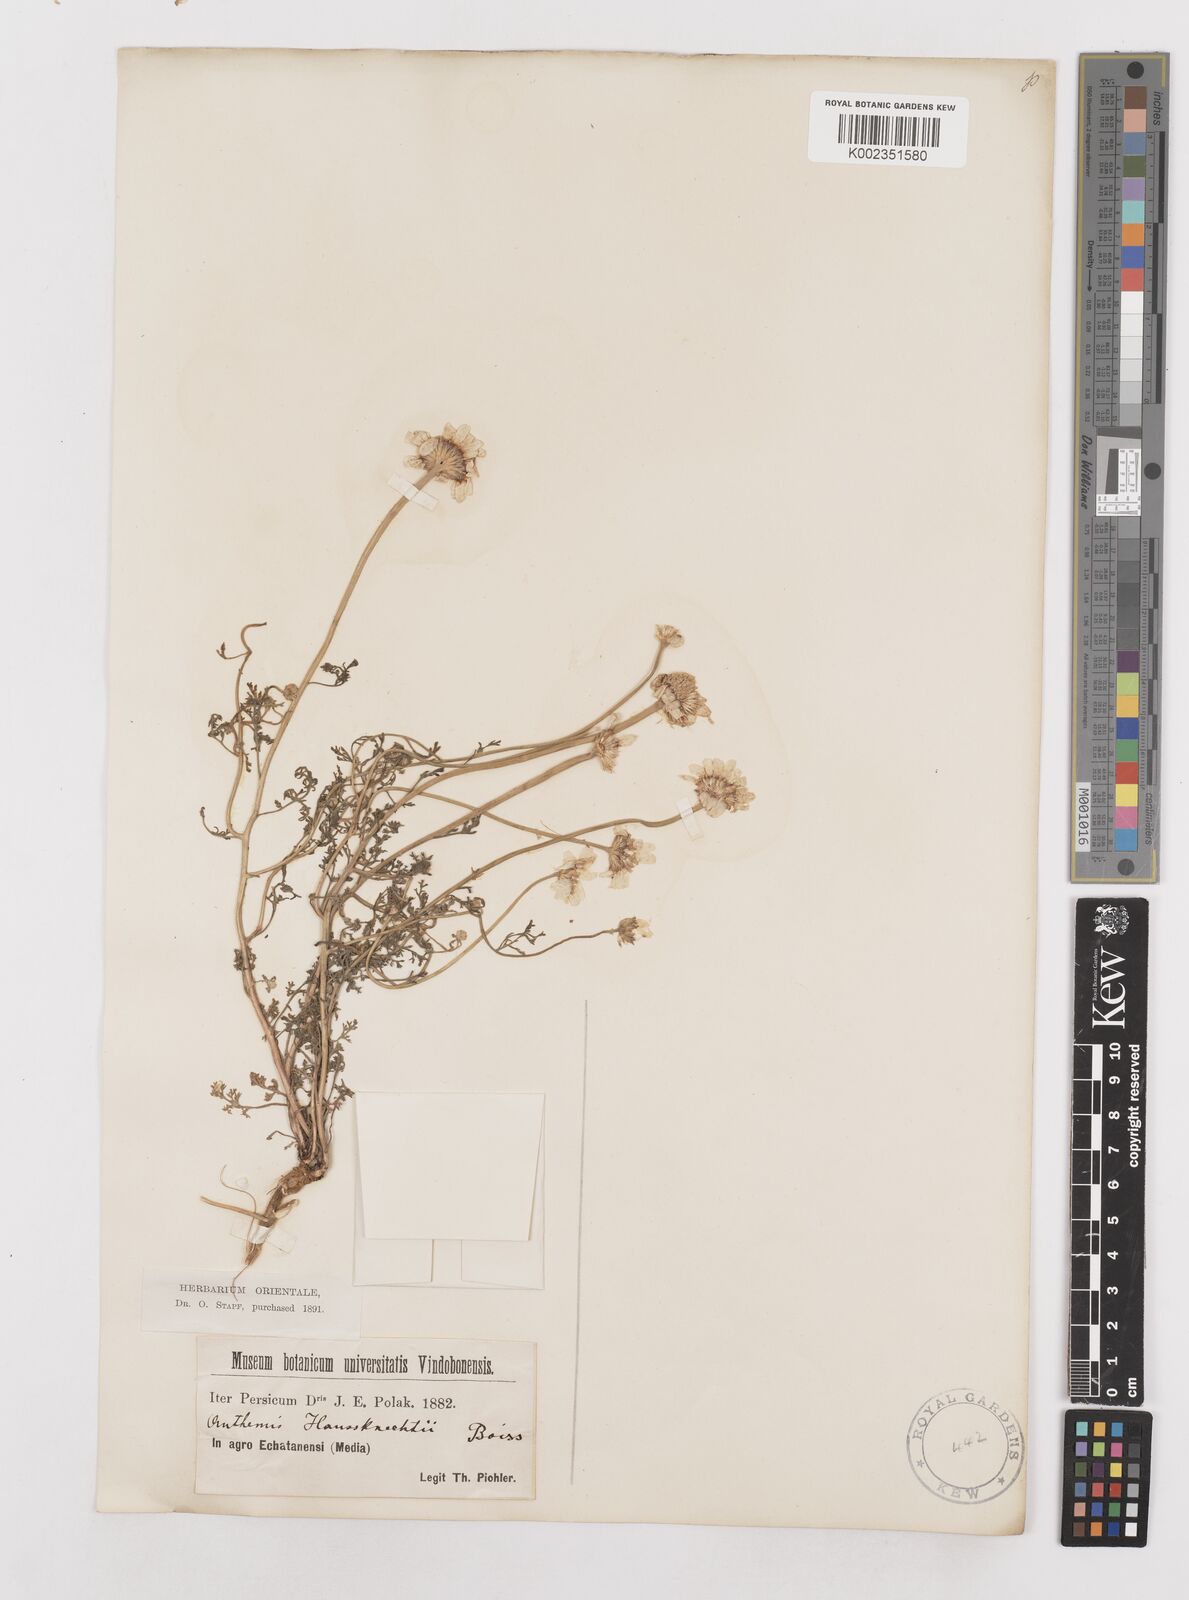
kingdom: Plantae
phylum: Tracheophyta
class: Magnoliopsida
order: Asterales
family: Asteraceae
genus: Anthemis
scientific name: Anthemis haussknechtii
